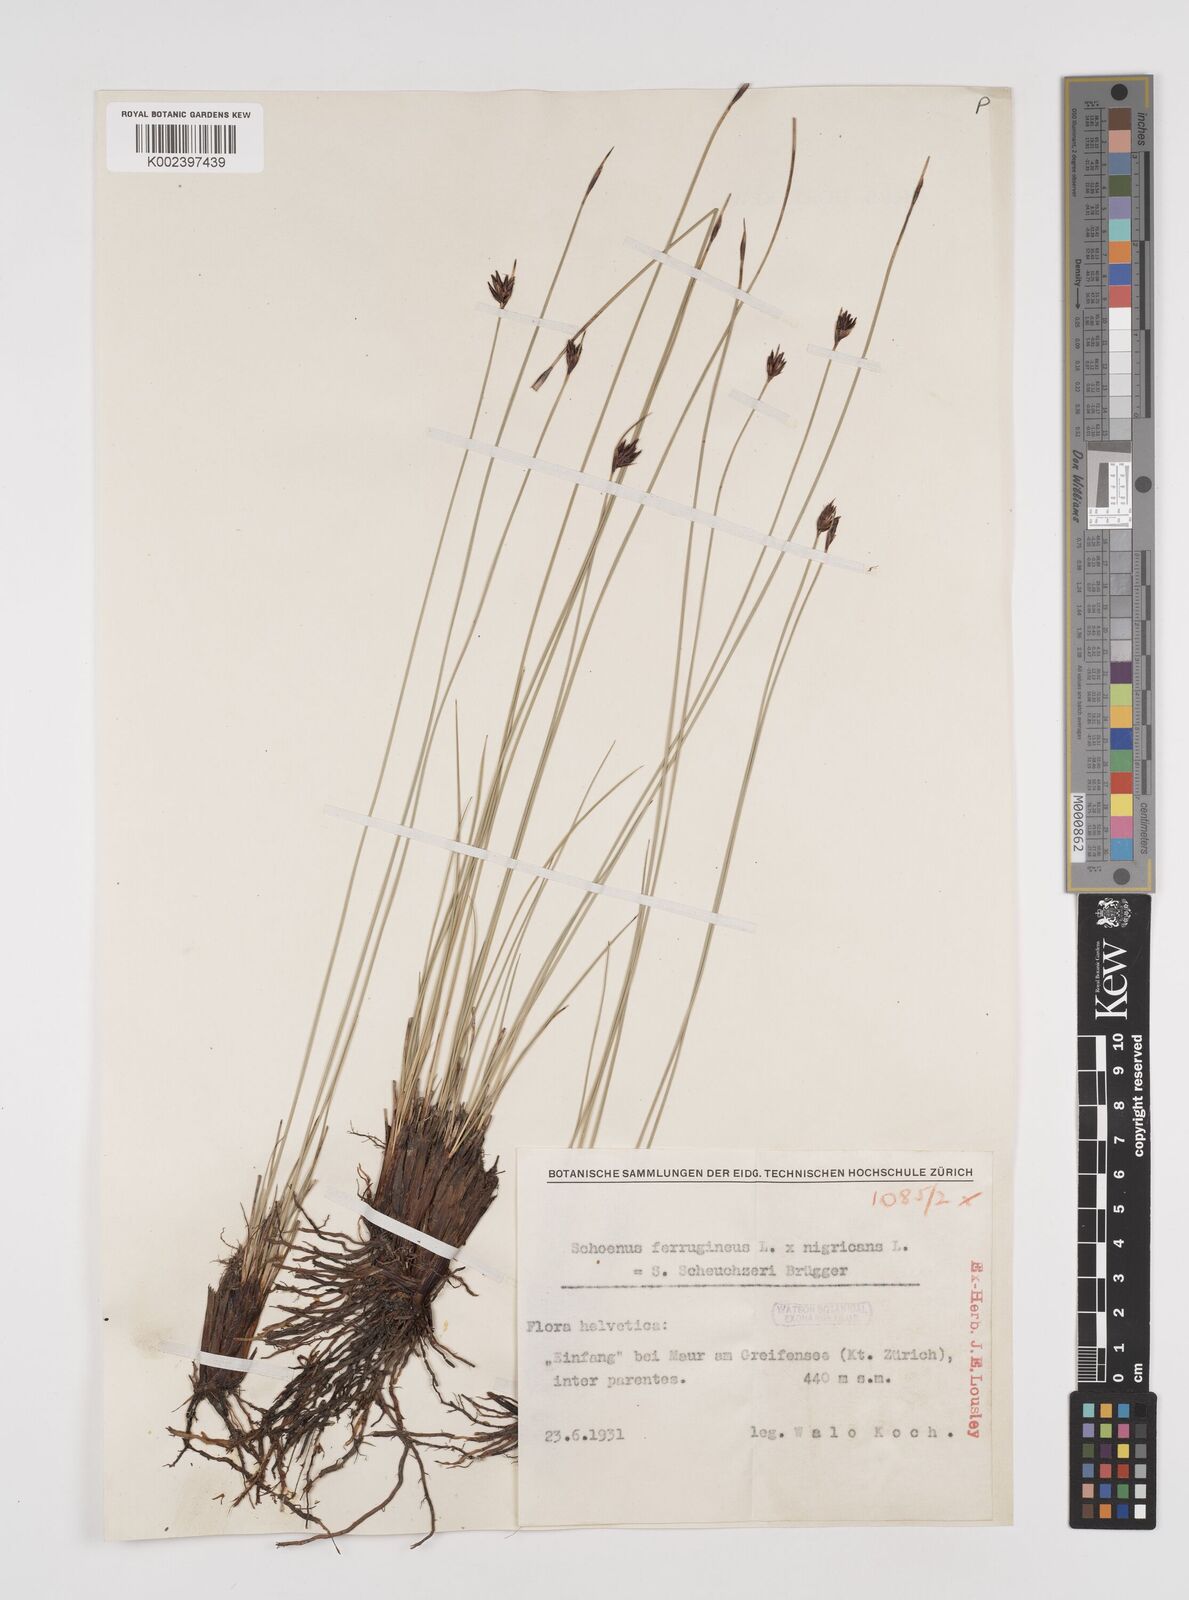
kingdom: Plantae
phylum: Tracheophyta
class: Liliopsida
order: Poales
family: Cyperaceae
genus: Schoenus
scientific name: Schoenus ferrugineus
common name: Brown bog-rush
